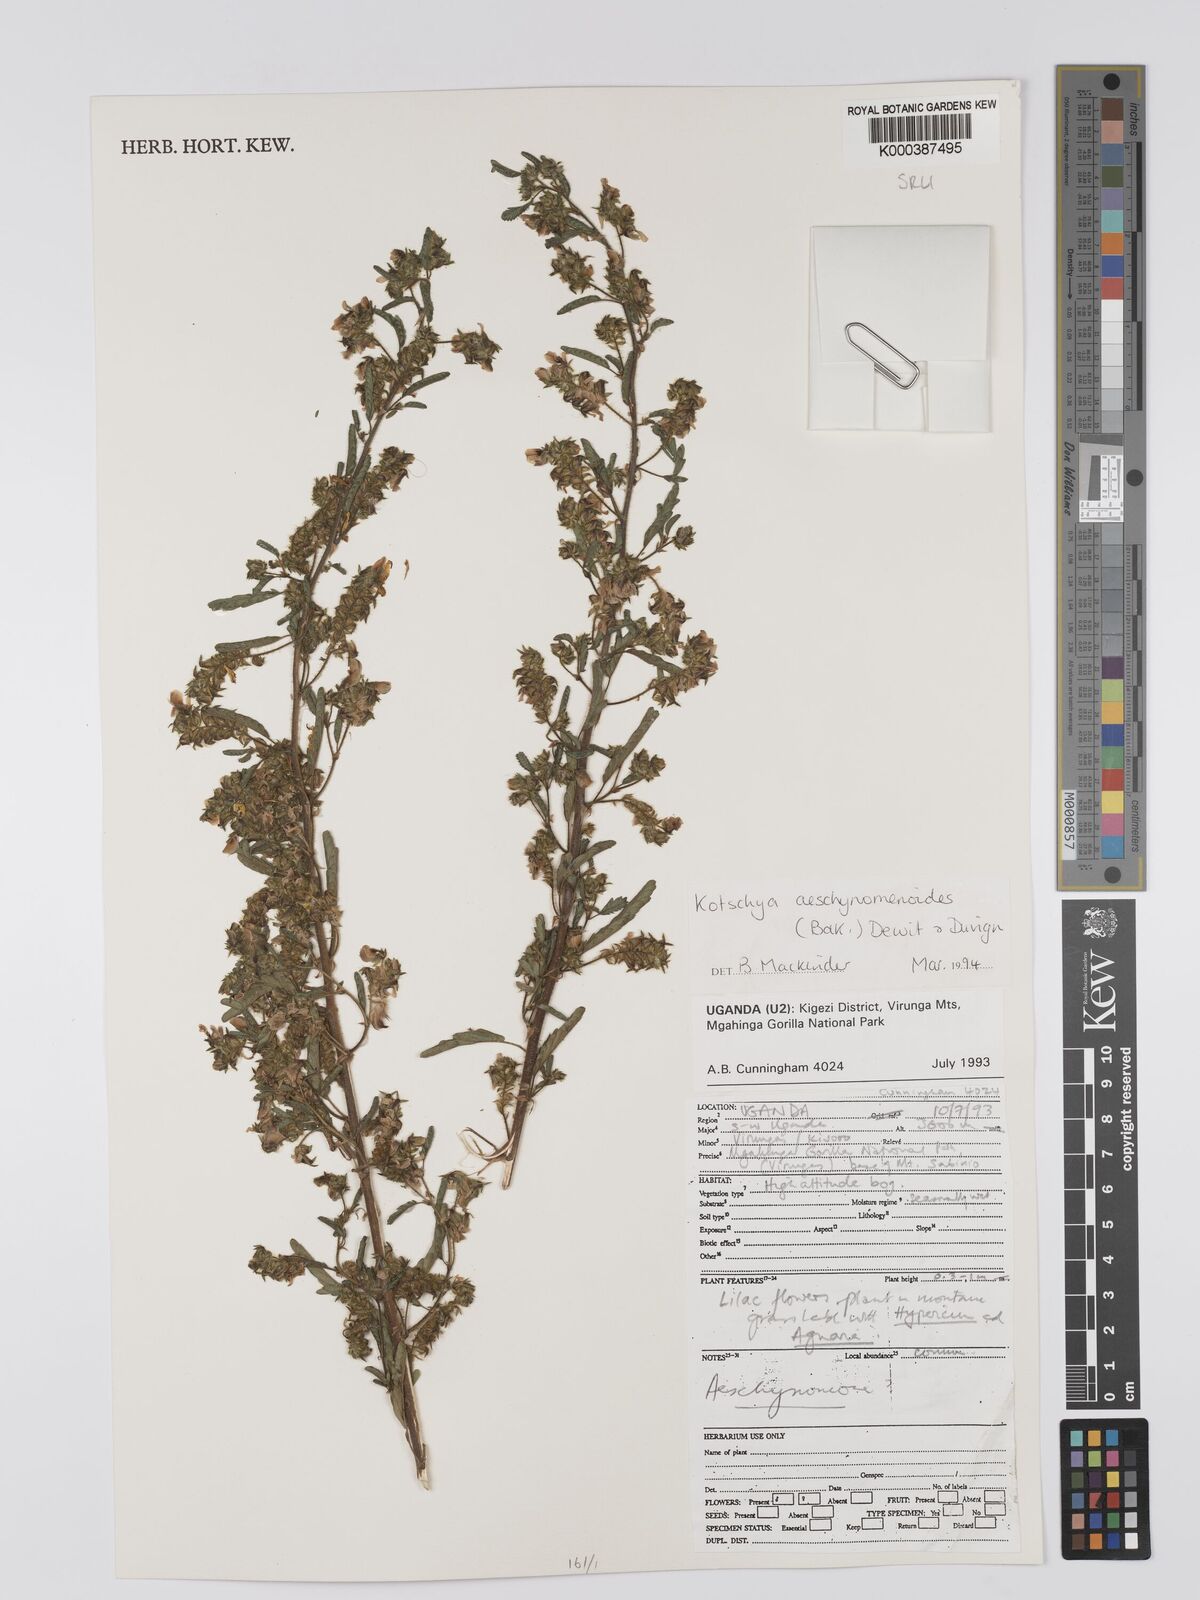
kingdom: Plantae
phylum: Tracheophyta
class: Magnoliopsida
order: Fabales
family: Fabaceae
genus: Kotschya
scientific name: Kotschya aeschynomenoides
